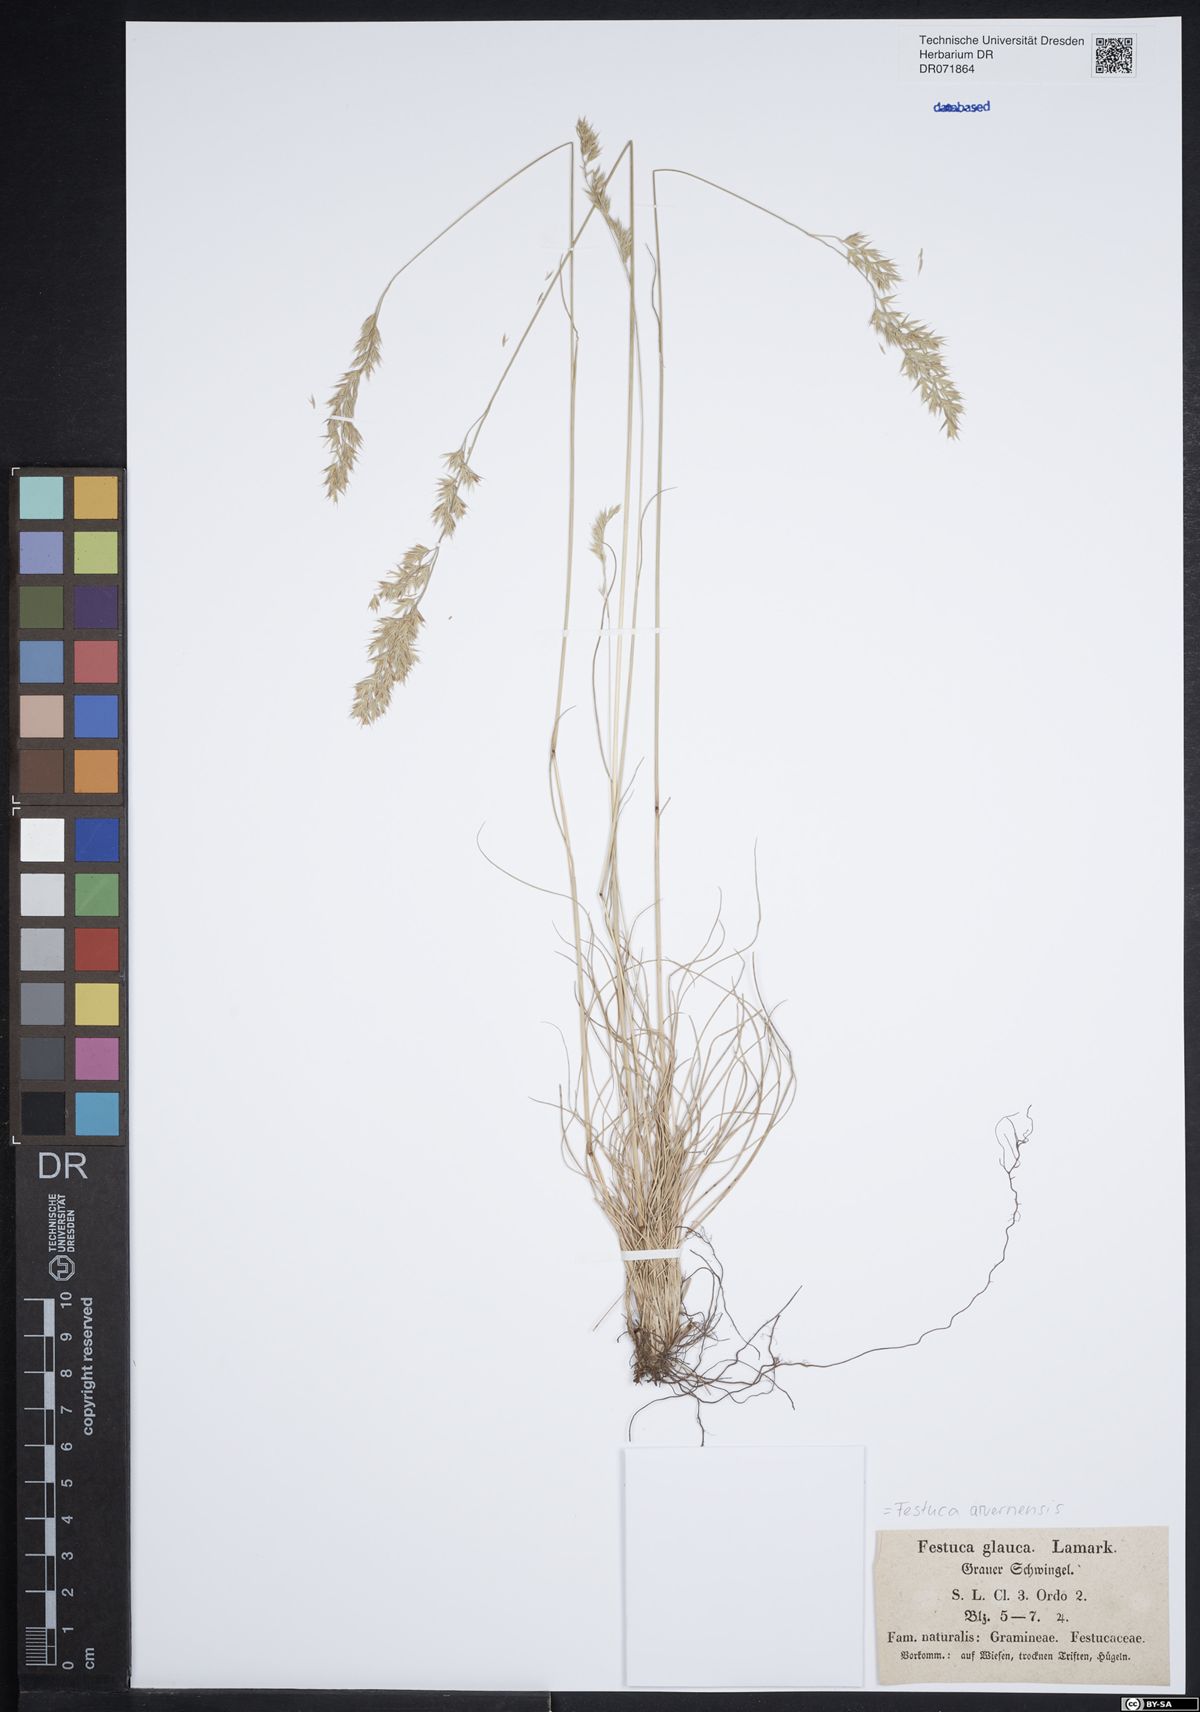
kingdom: Plantae
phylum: Tracheophyta
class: Liliopsida
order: Poales
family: Poaceae
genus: Festuca
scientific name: Festuca arvernensis
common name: Field fescue
